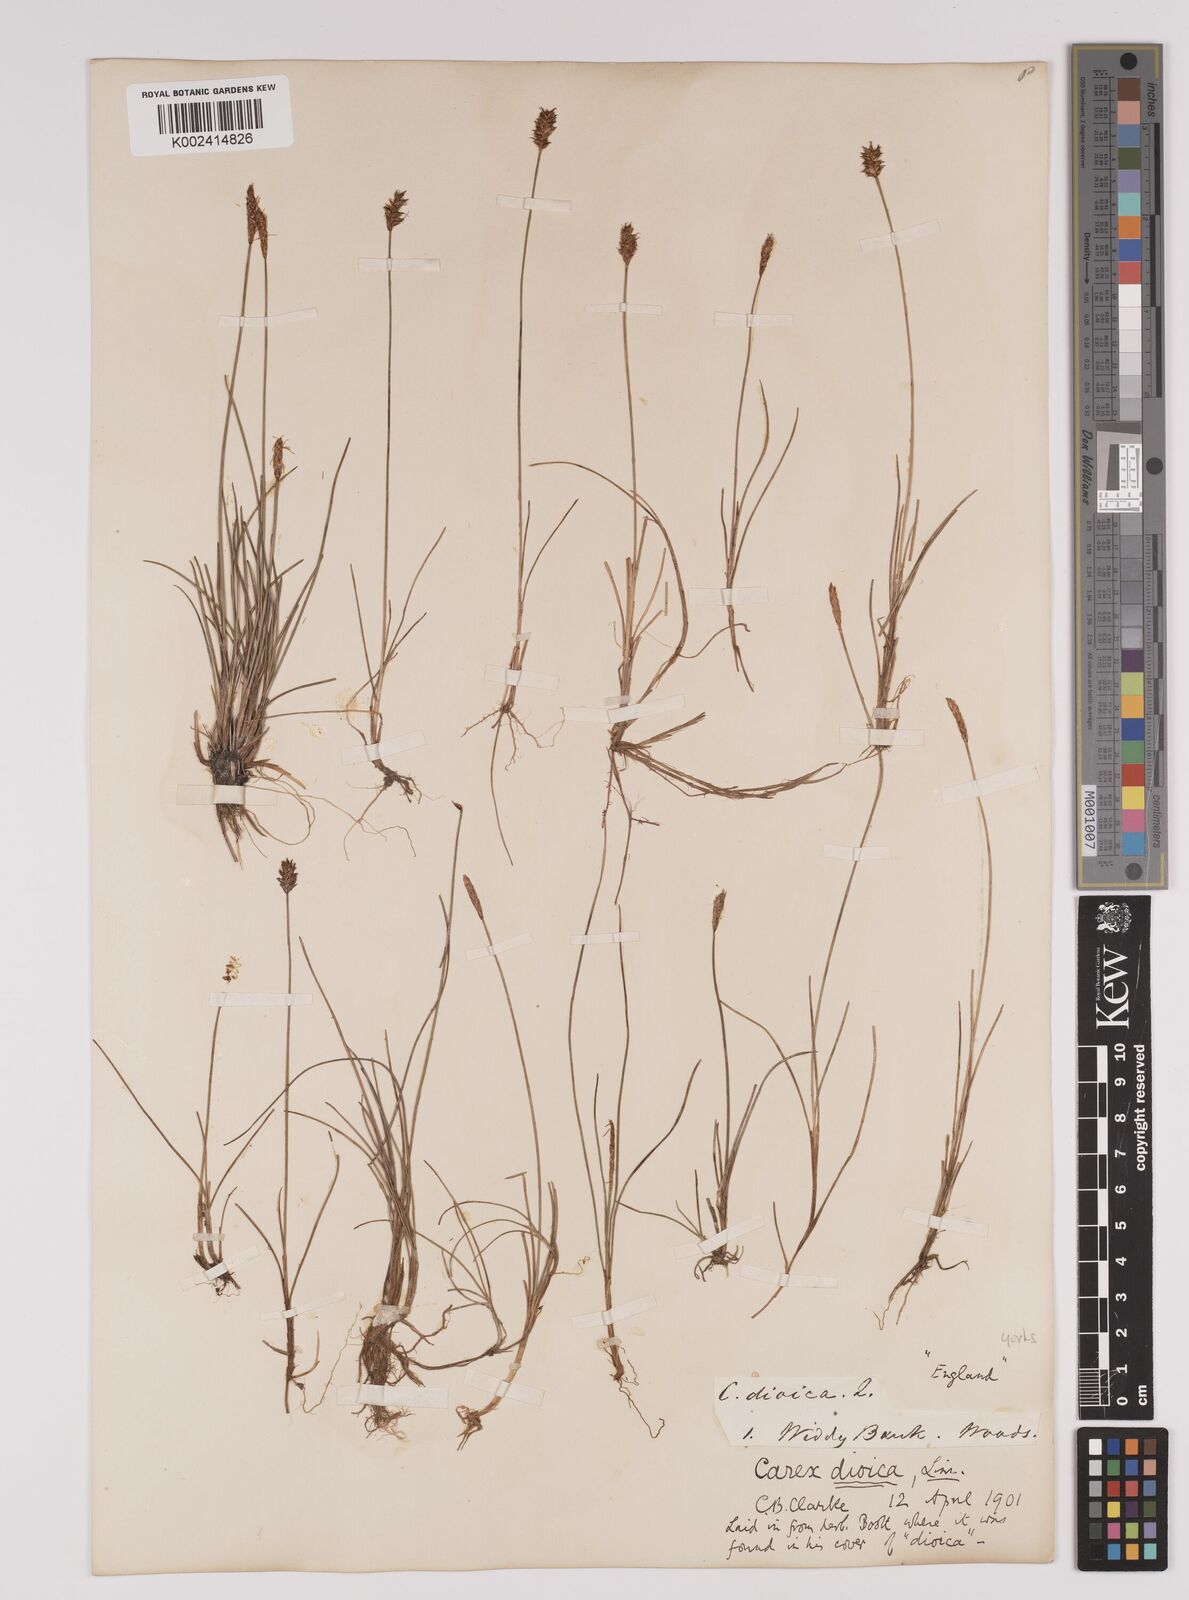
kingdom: Plantae
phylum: Tracheophyta
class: Liliopsida
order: Poales
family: Cyperaceae
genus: Carex
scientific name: Carex dioica
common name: Dioecious sedge
